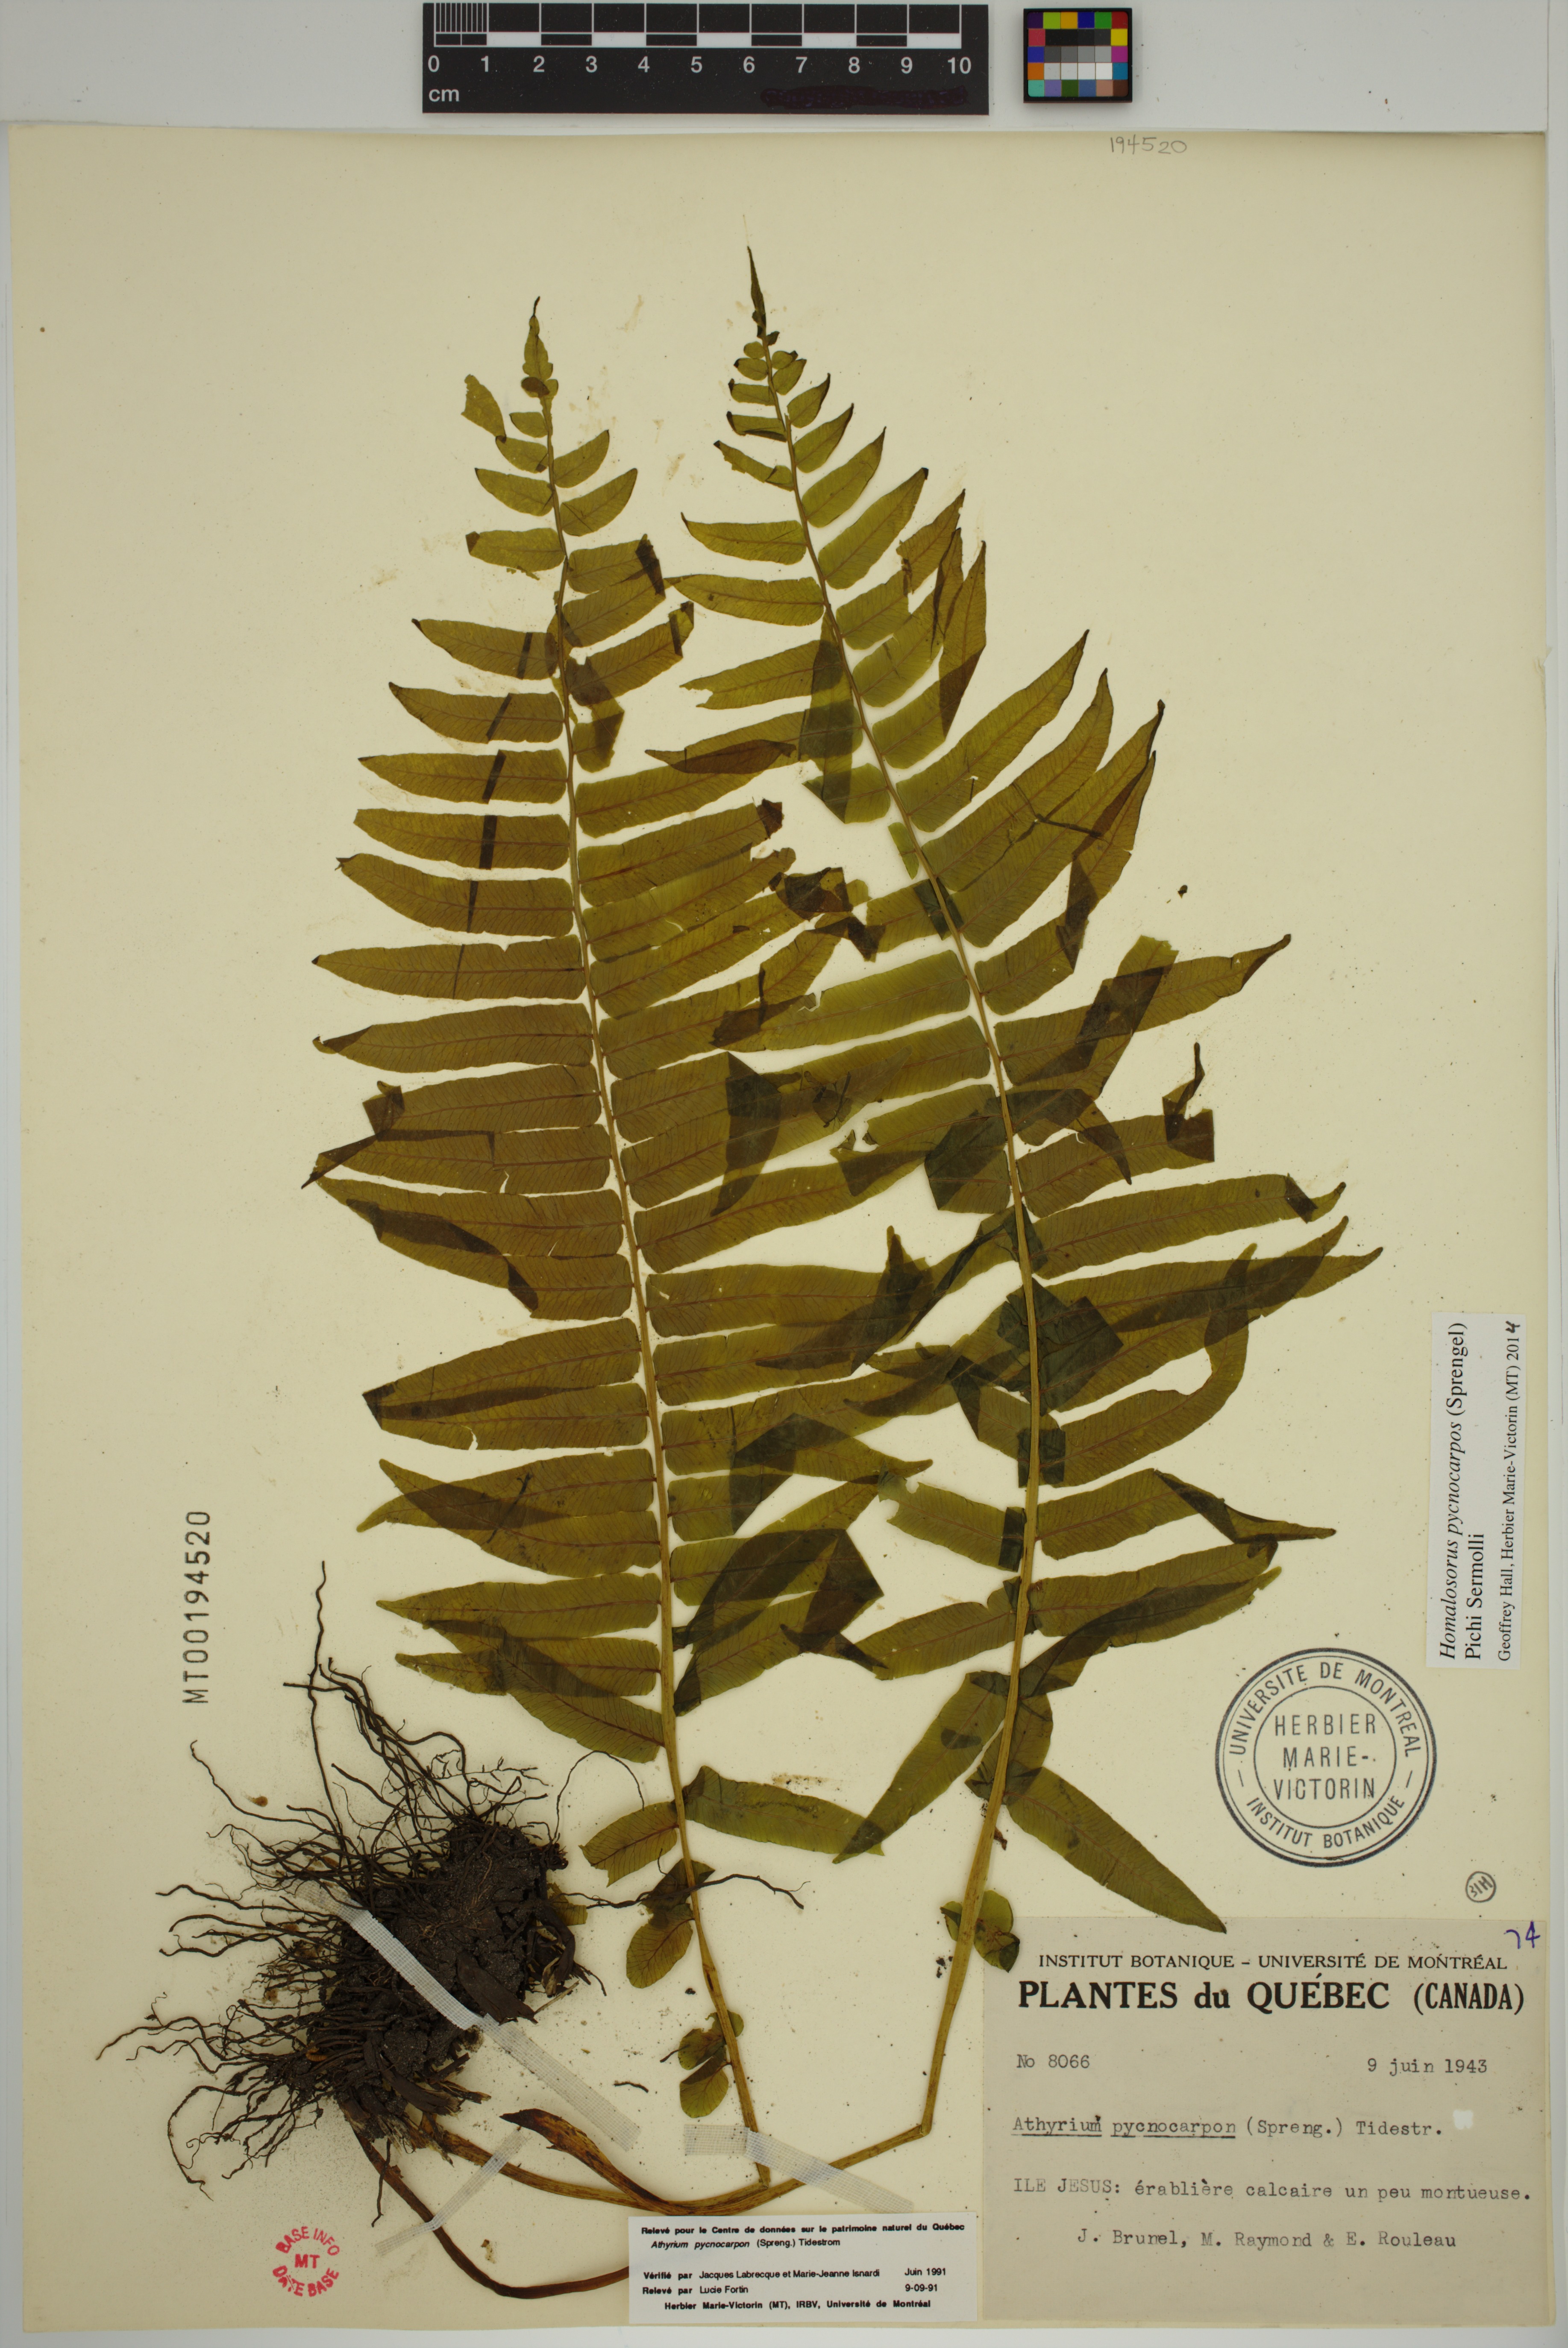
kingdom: Plantae
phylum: Tracheophyta
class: Polypodiopsida
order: Polypodiales
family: Diplaziopsidaceae
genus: Homalosorus
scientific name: Homalosorus pycnocarpos
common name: Glade fern
